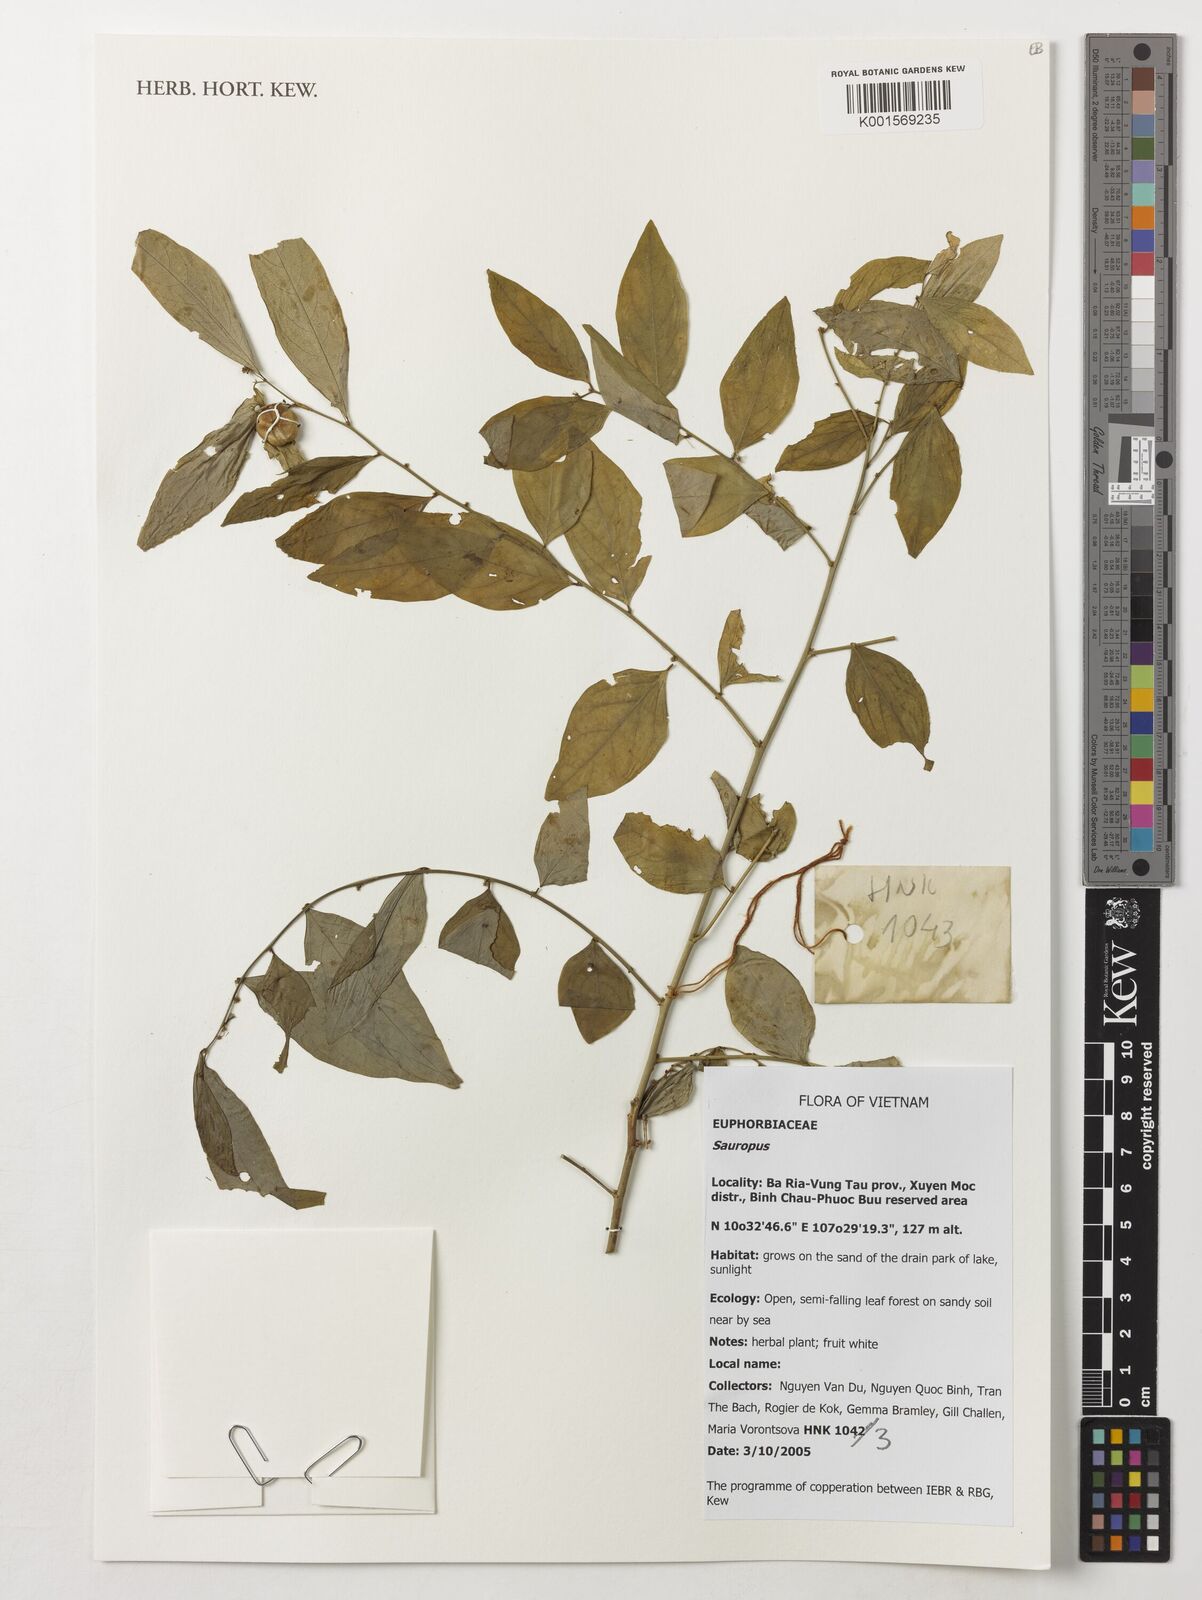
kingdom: Animalia
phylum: Chordata
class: Amphibia
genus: Sauropus
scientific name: Sauropus
